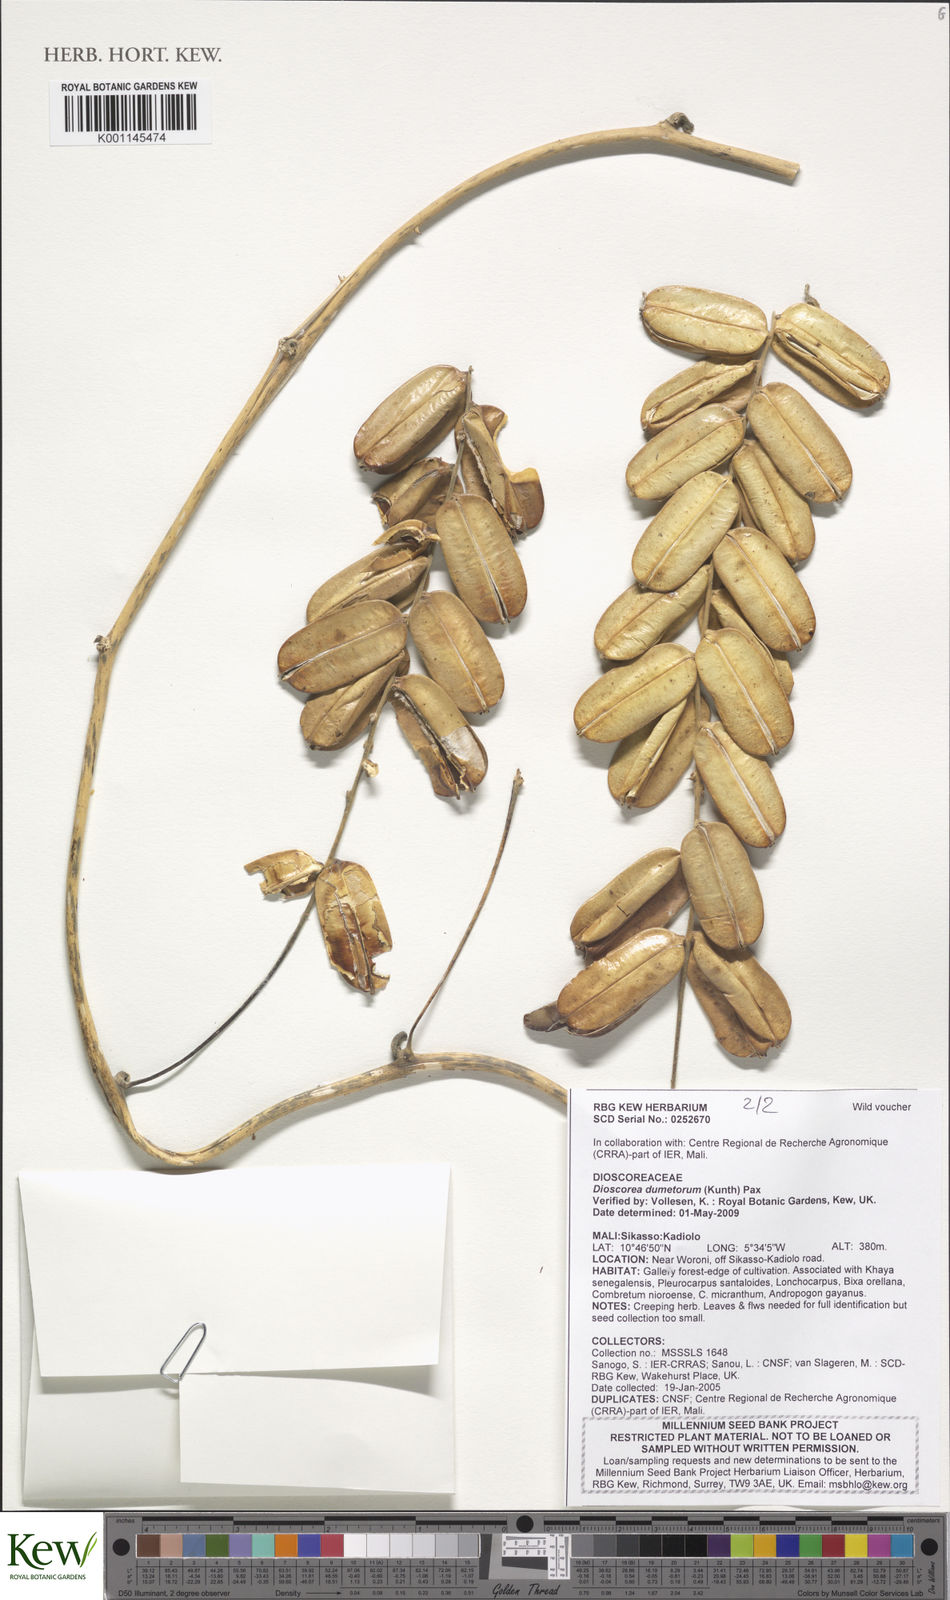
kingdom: Plantae
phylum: Tracheophyta
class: Liliopsida
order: Dioscoreales
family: Dioscoreaceae
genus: Dioscorea
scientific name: Dioscorea dumetorum
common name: African bitter yam
